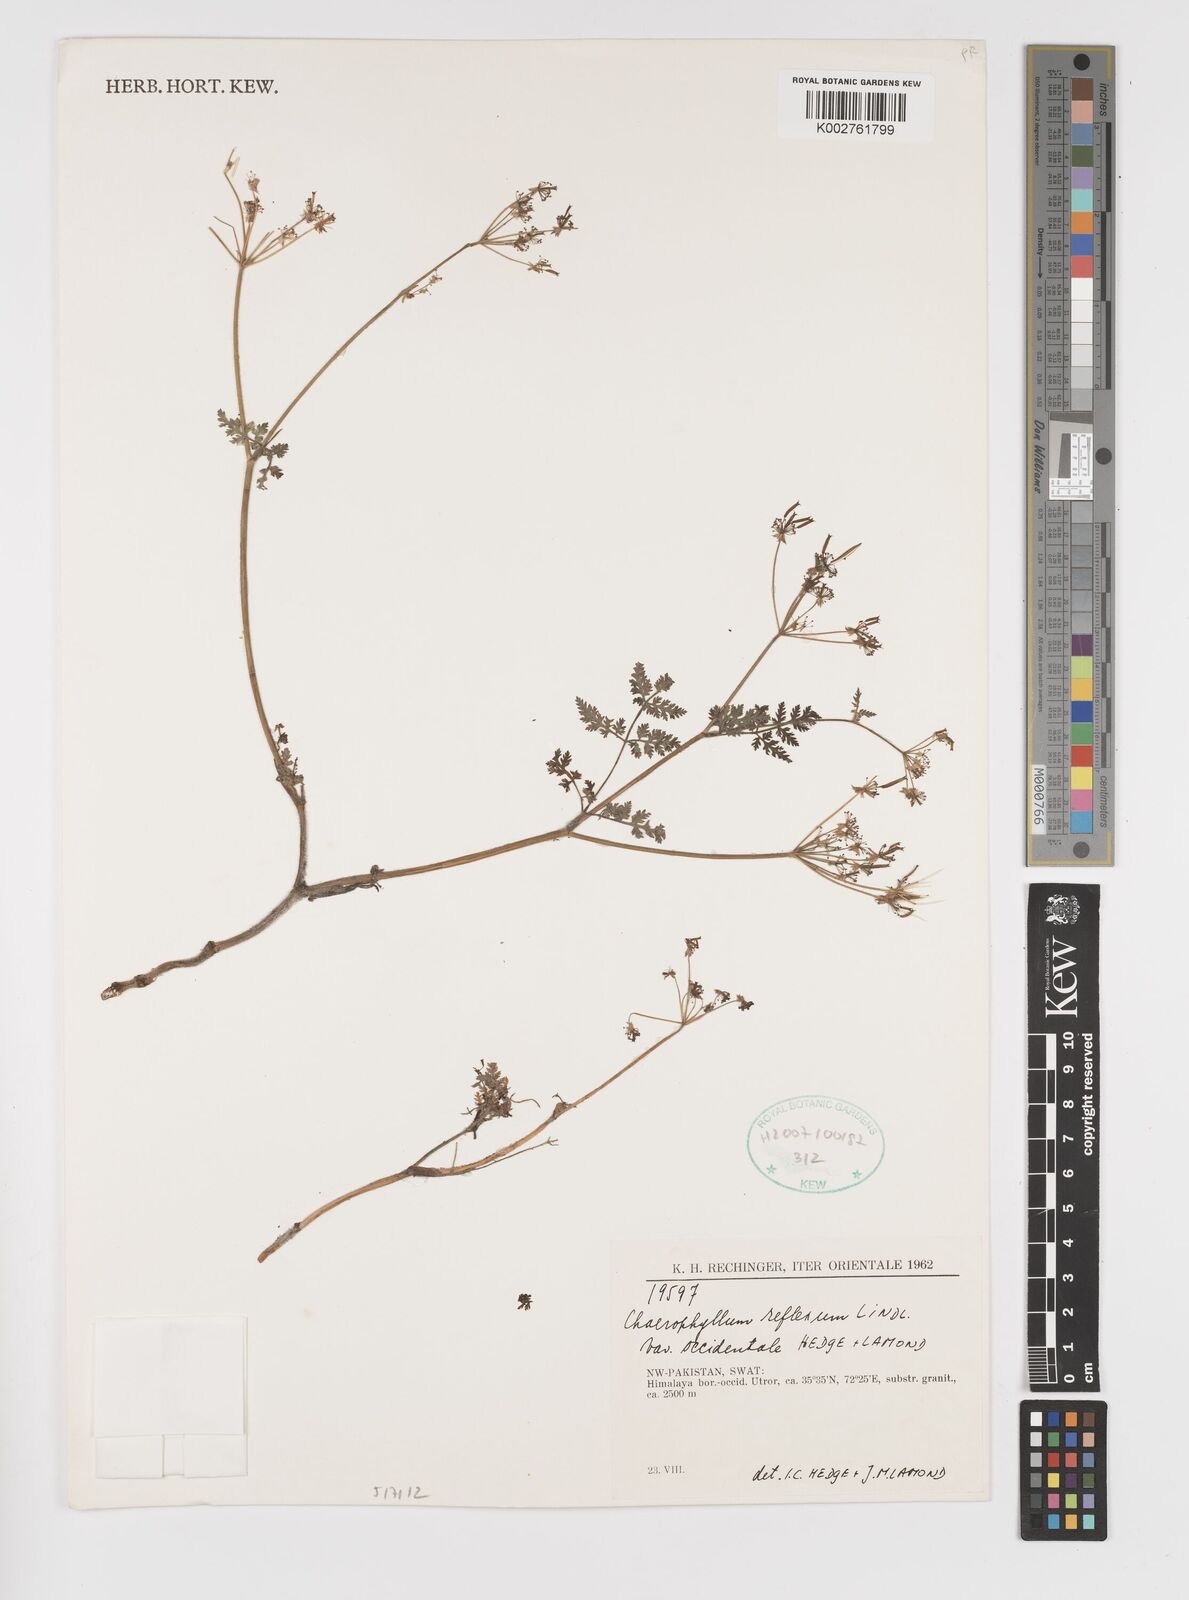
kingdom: Plantae
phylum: Tracheophyta
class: Magnoliopsida
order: Apiales
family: Apiaceae
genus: Chaerophyllum
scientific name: Chaerophyllum reflexum
